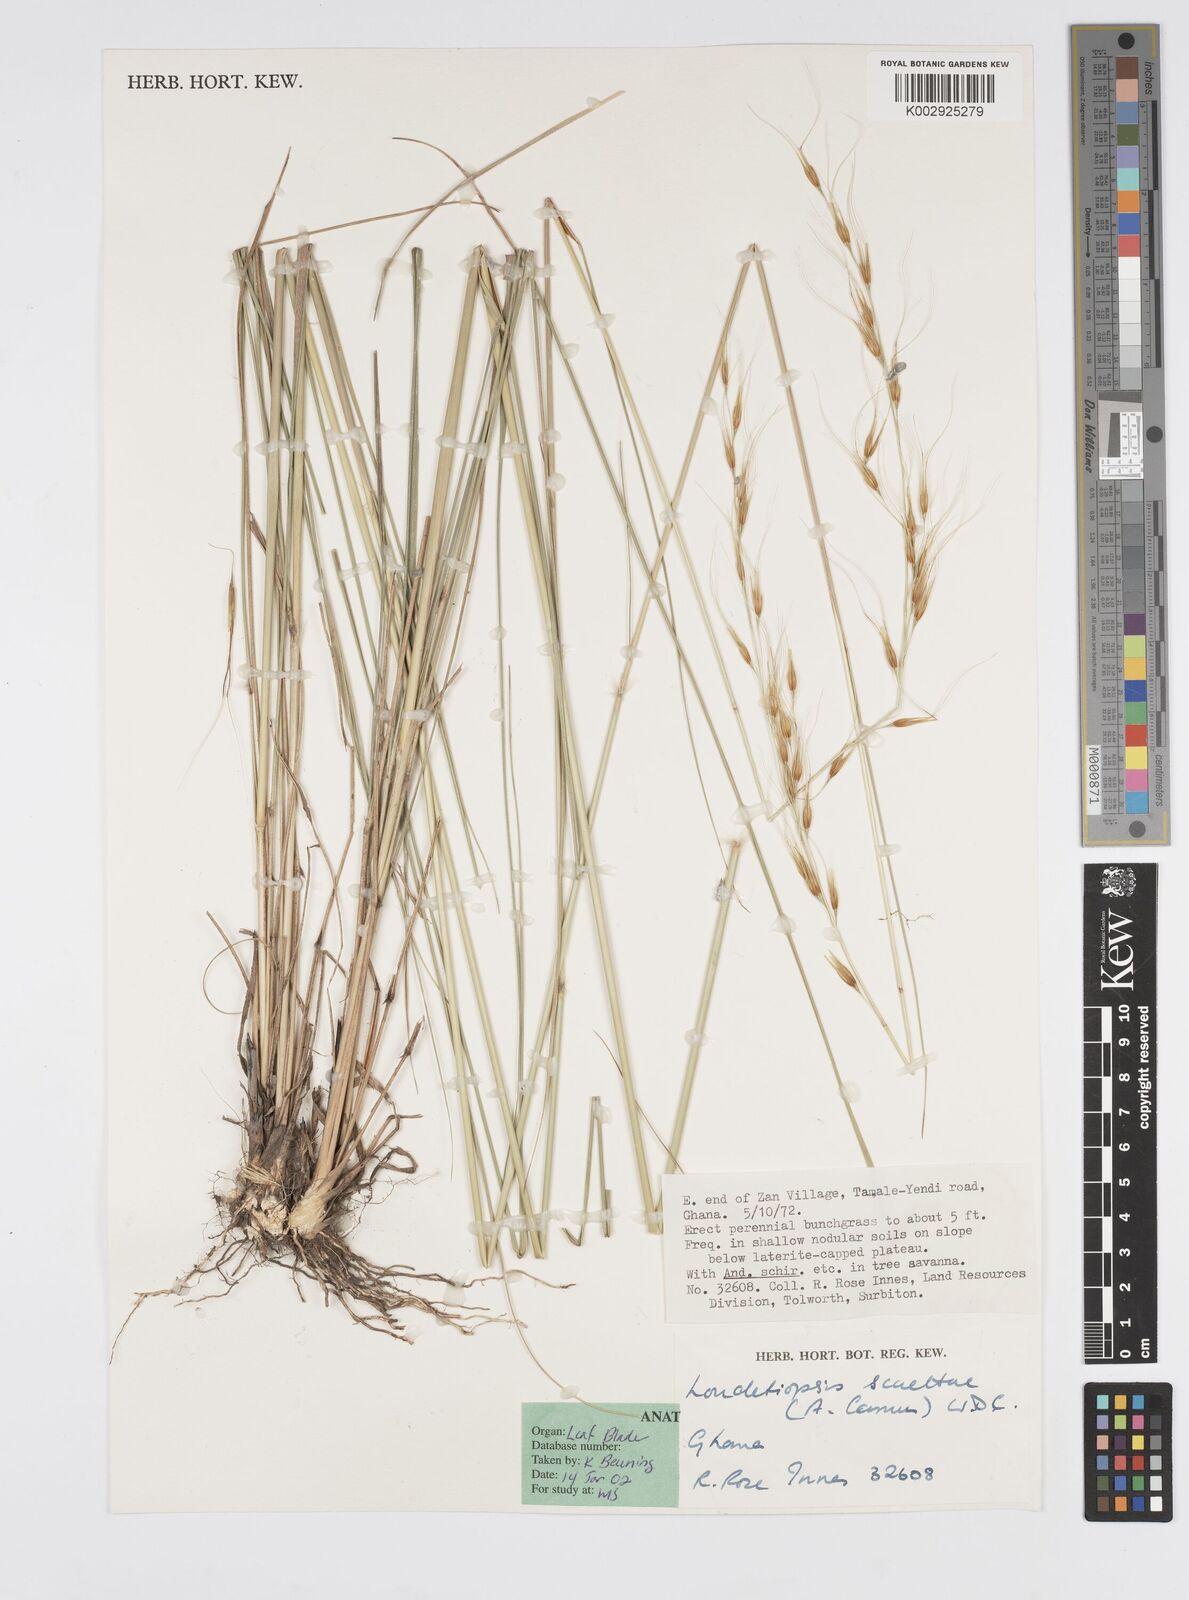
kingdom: Plantae
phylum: Tracheophyta
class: Liliopsida
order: Poales
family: Poaceae
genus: Loudetiopsis
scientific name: Loudetiopsis scaettae
